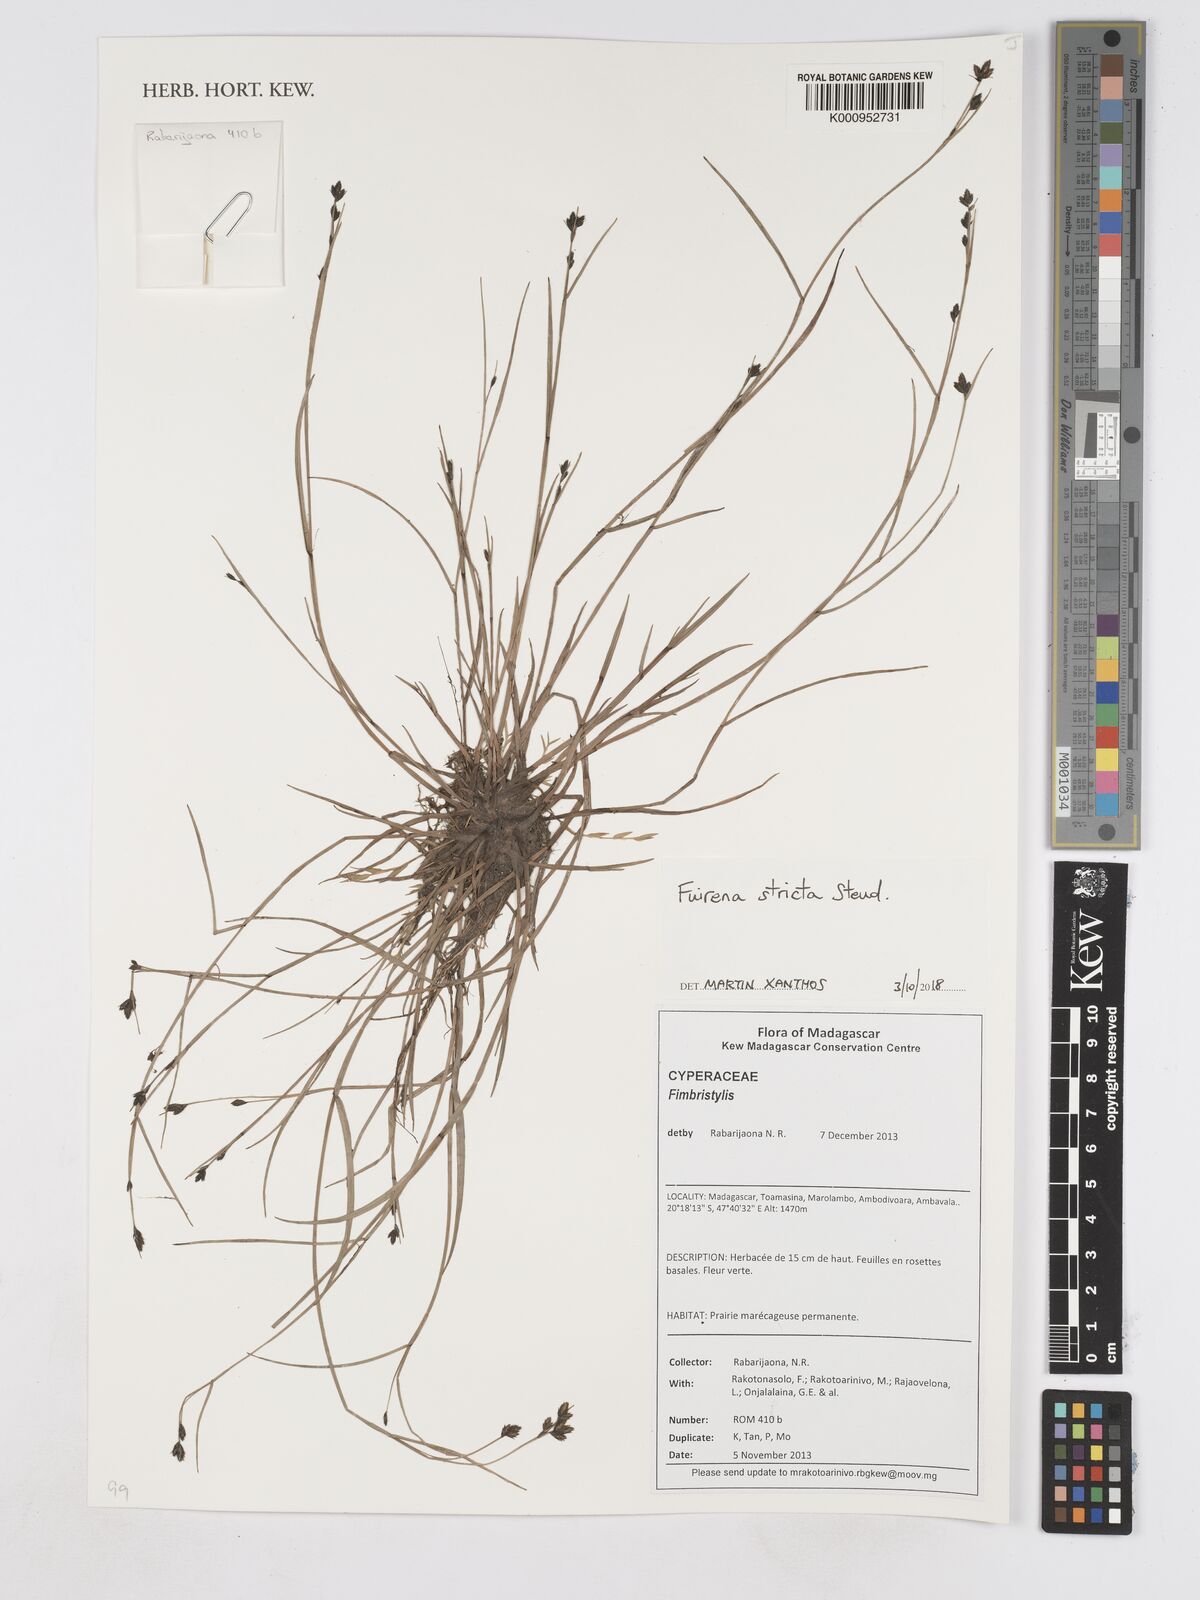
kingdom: Plantae
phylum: Tracheophyta
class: Liliopsida
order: Poales
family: Cyperaceae
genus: Fuirena
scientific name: Fuirena stricta
